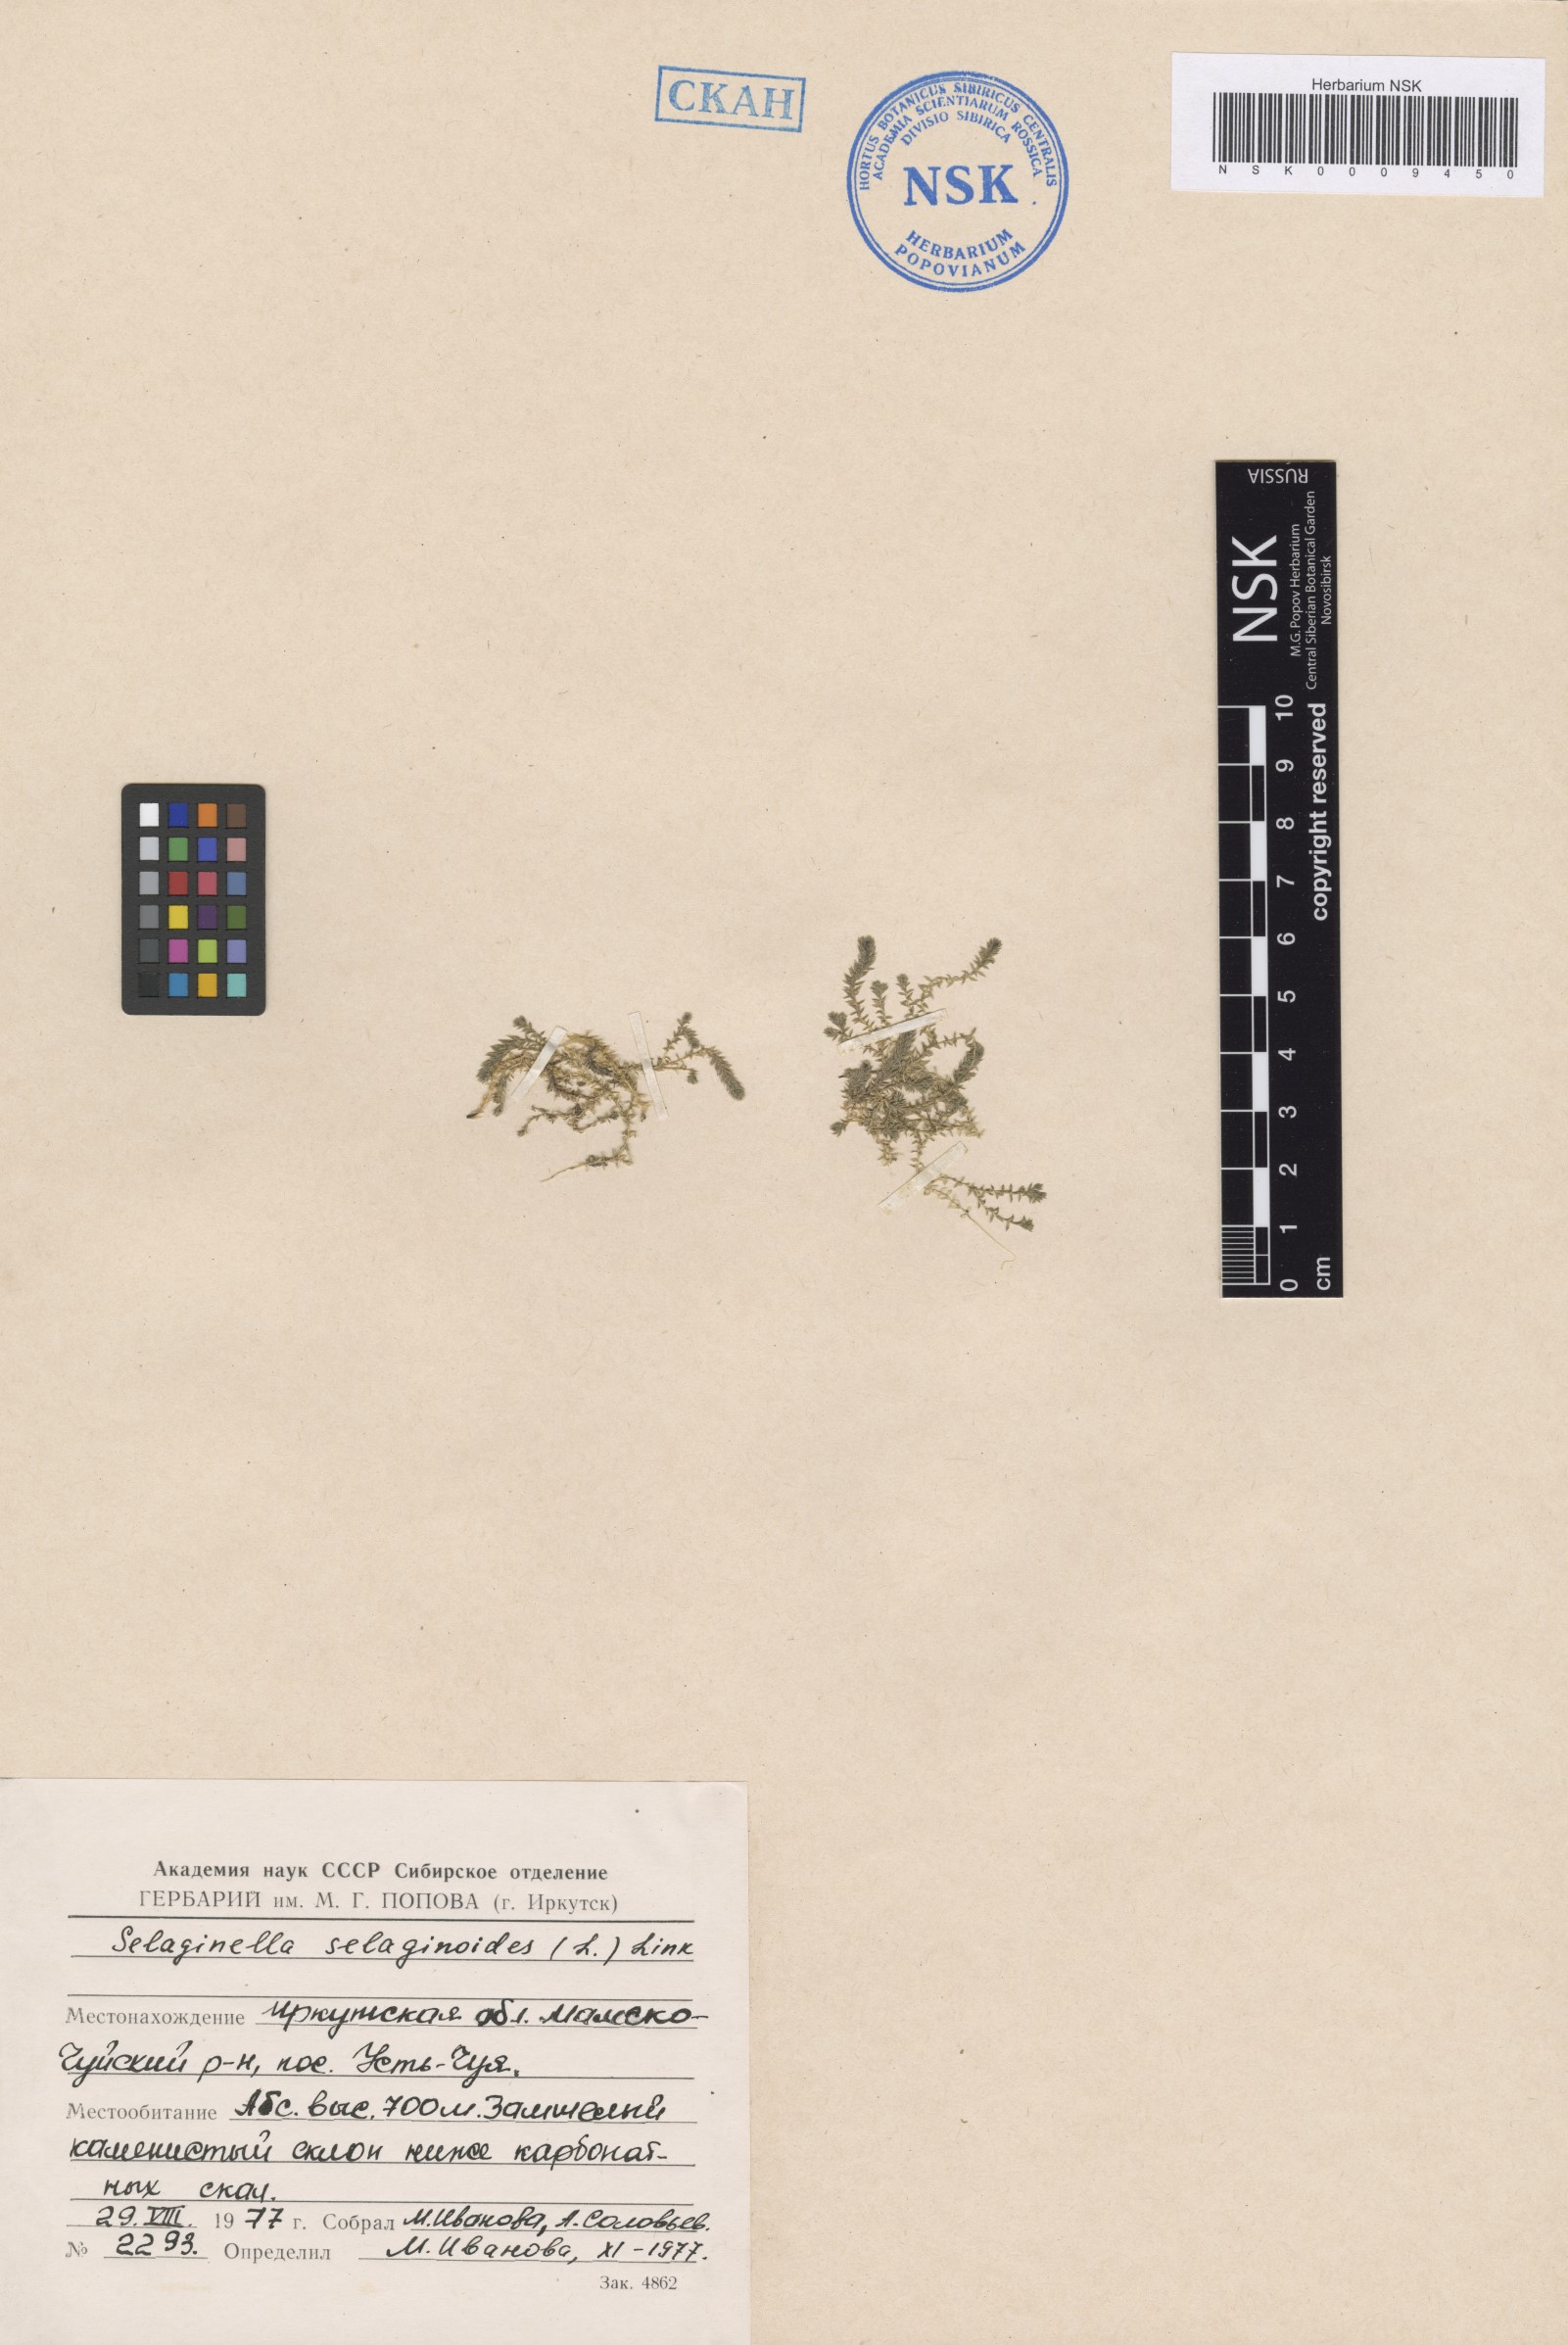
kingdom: Plantae
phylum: Tracheophyta
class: Lycopodiopsida
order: Selaginellales
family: Selaginellaceae
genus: Selaginella
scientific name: Selaginella selaginoides
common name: Prickly mountain-moss
